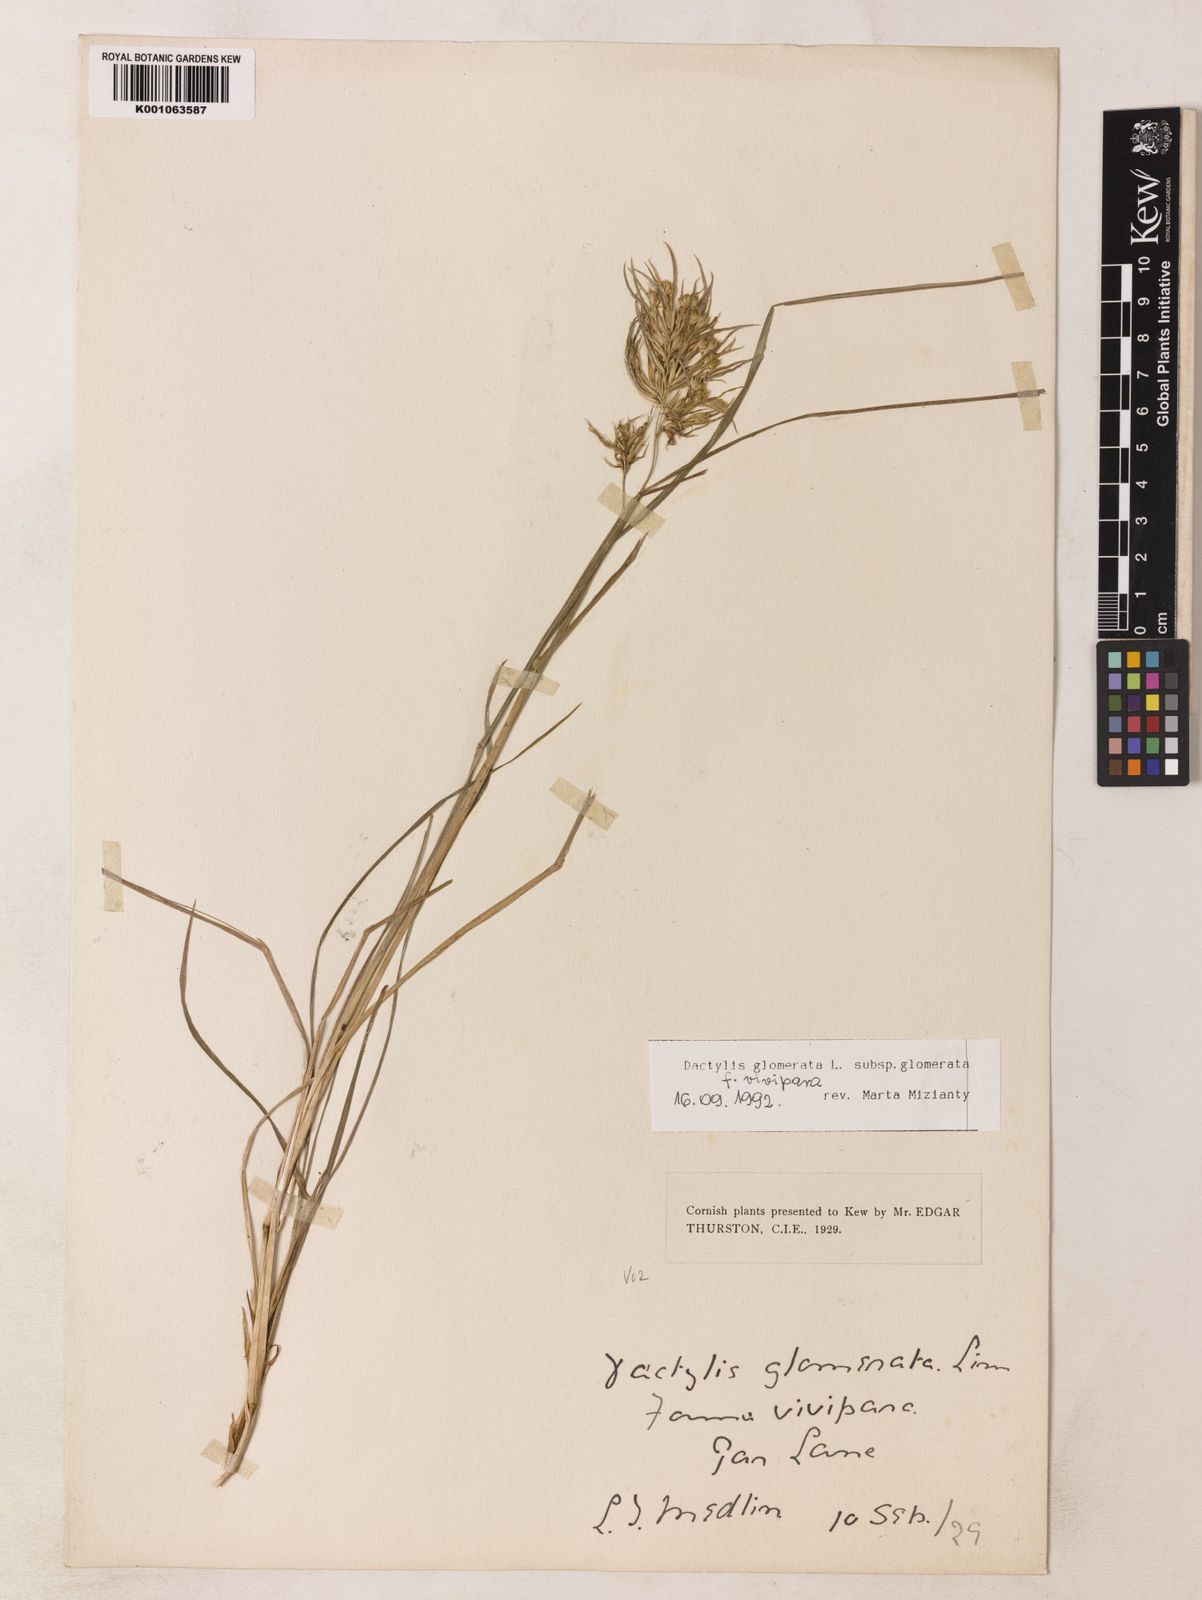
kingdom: Plantae
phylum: Tracheophyta
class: Liliopsida
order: Poales
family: Poaceae
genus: Dactylis
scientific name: Dactylis glomerata
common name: Orchardgrass
